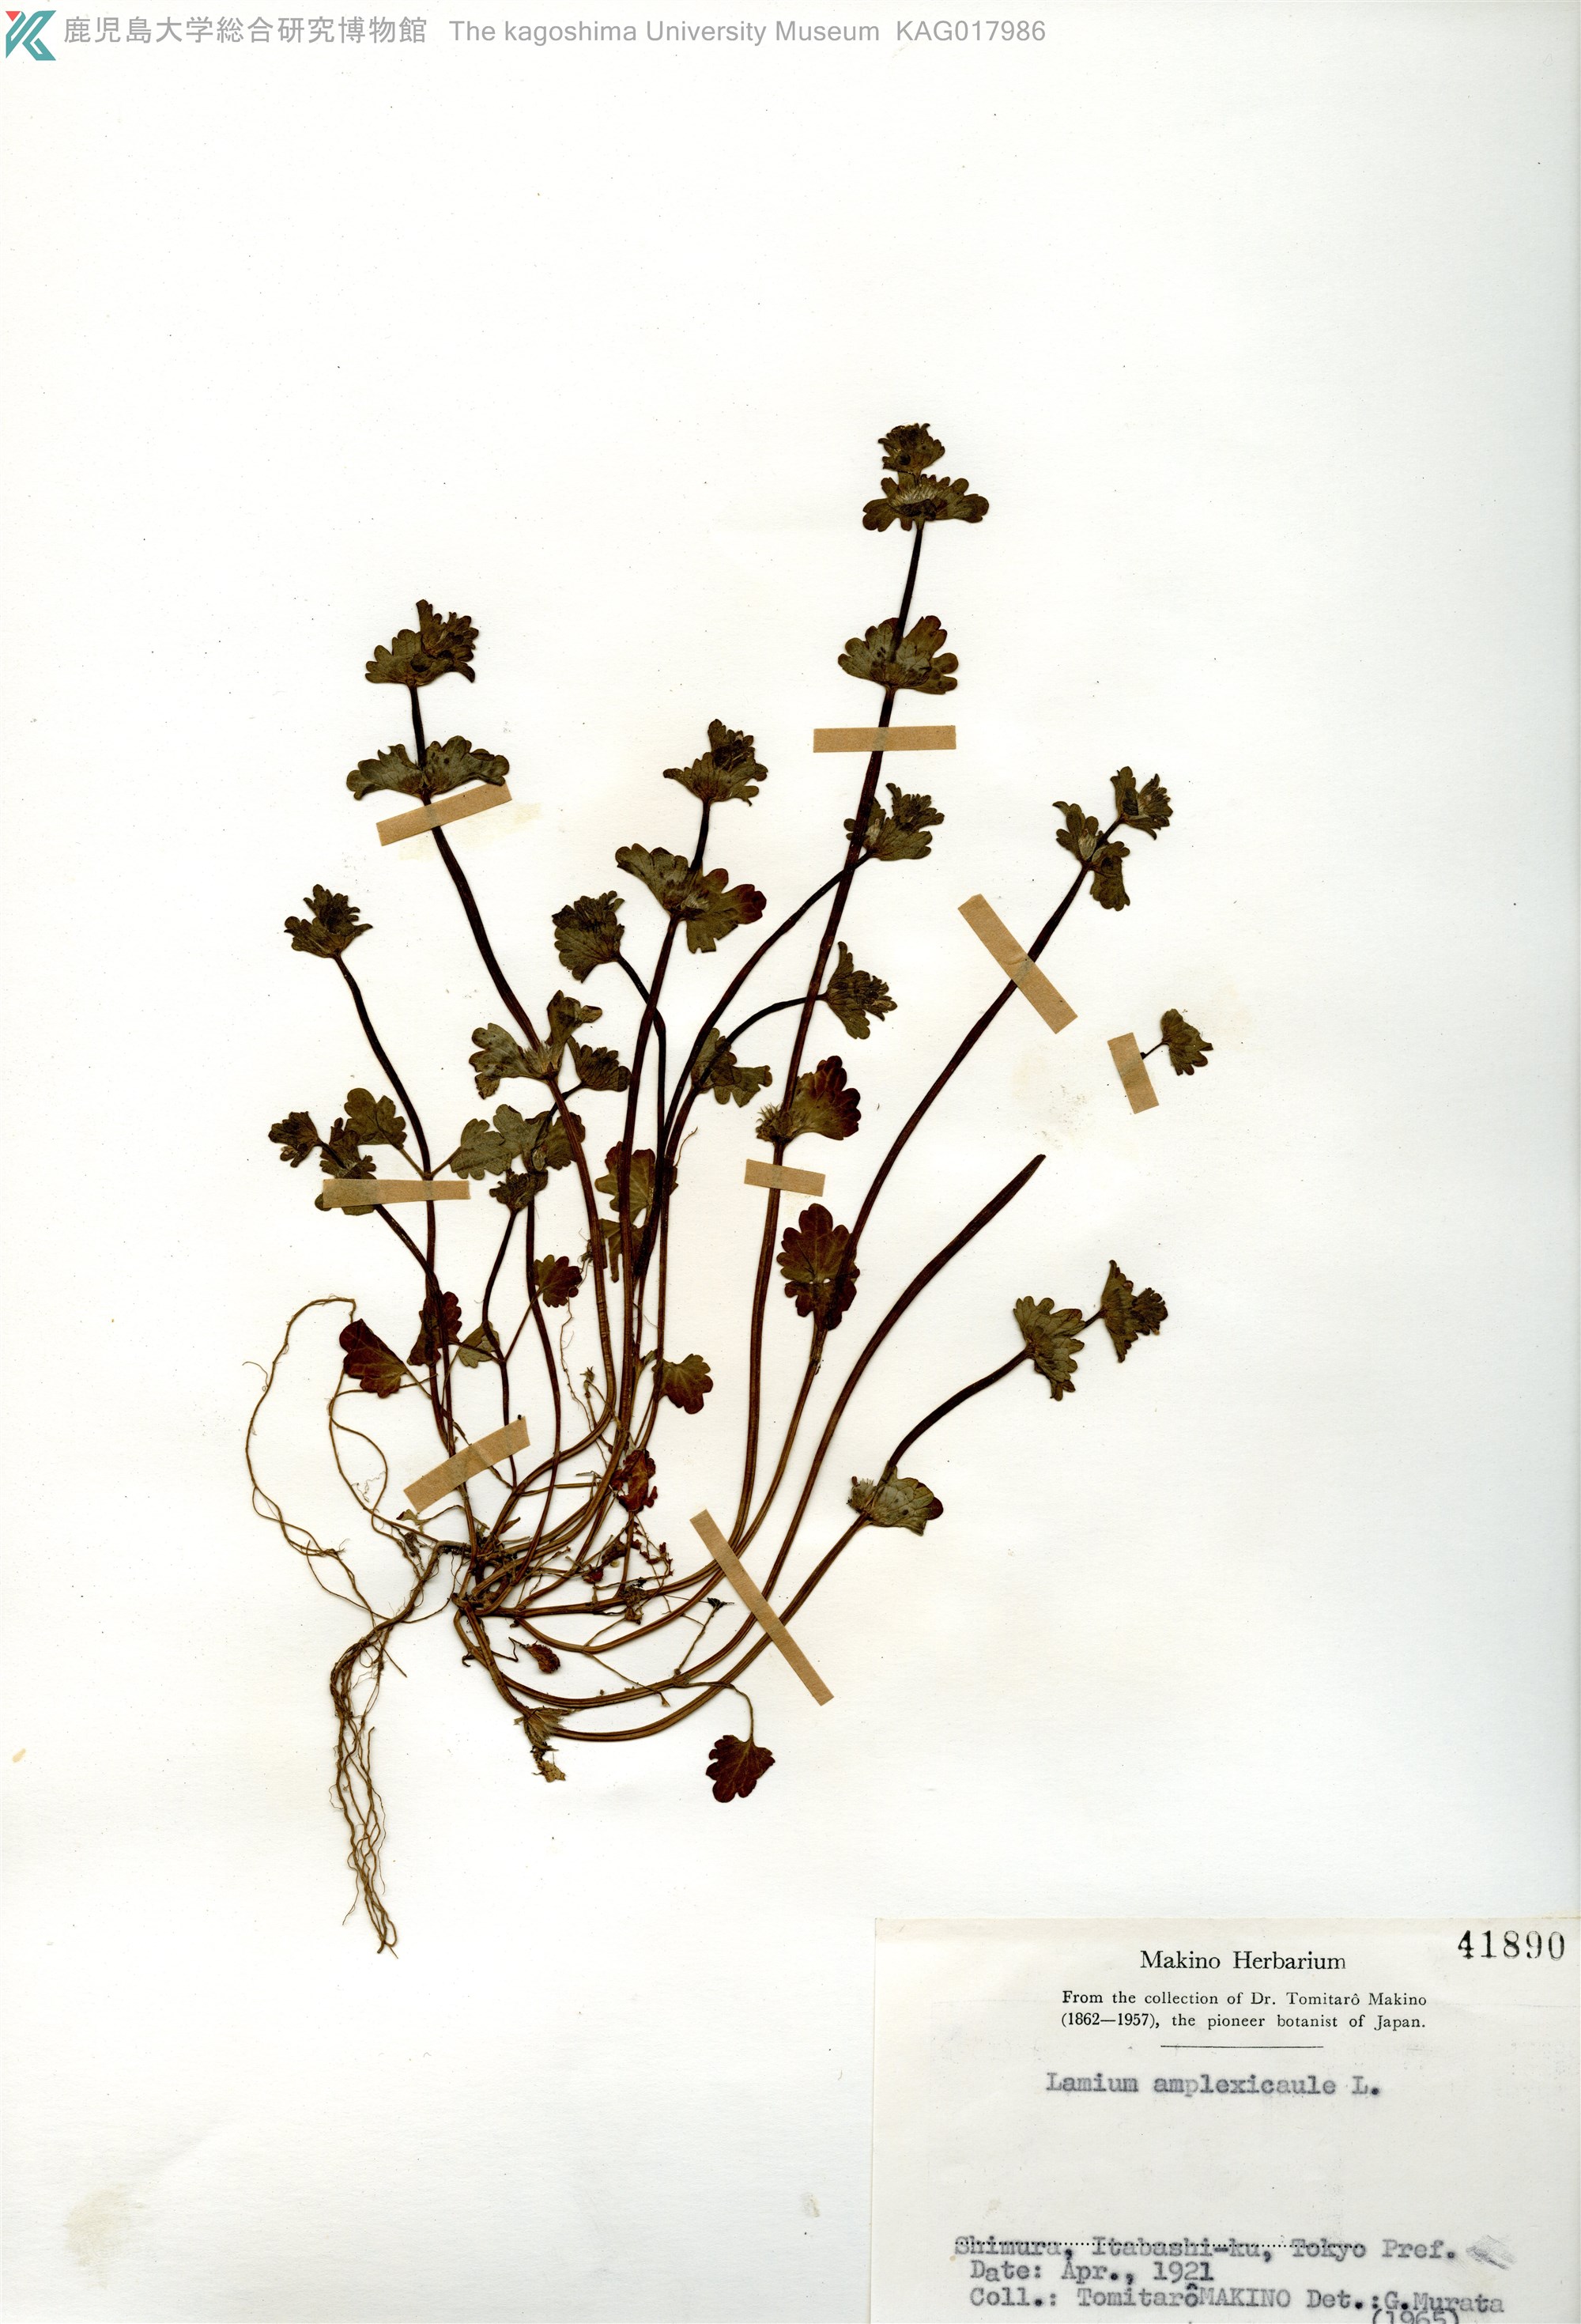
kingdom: Plantae
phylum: Tracheophyta
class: Magnoliopsida
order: Lamiales
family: Lamiaceae
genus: Lamium
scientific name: Lamium amplexicaule
